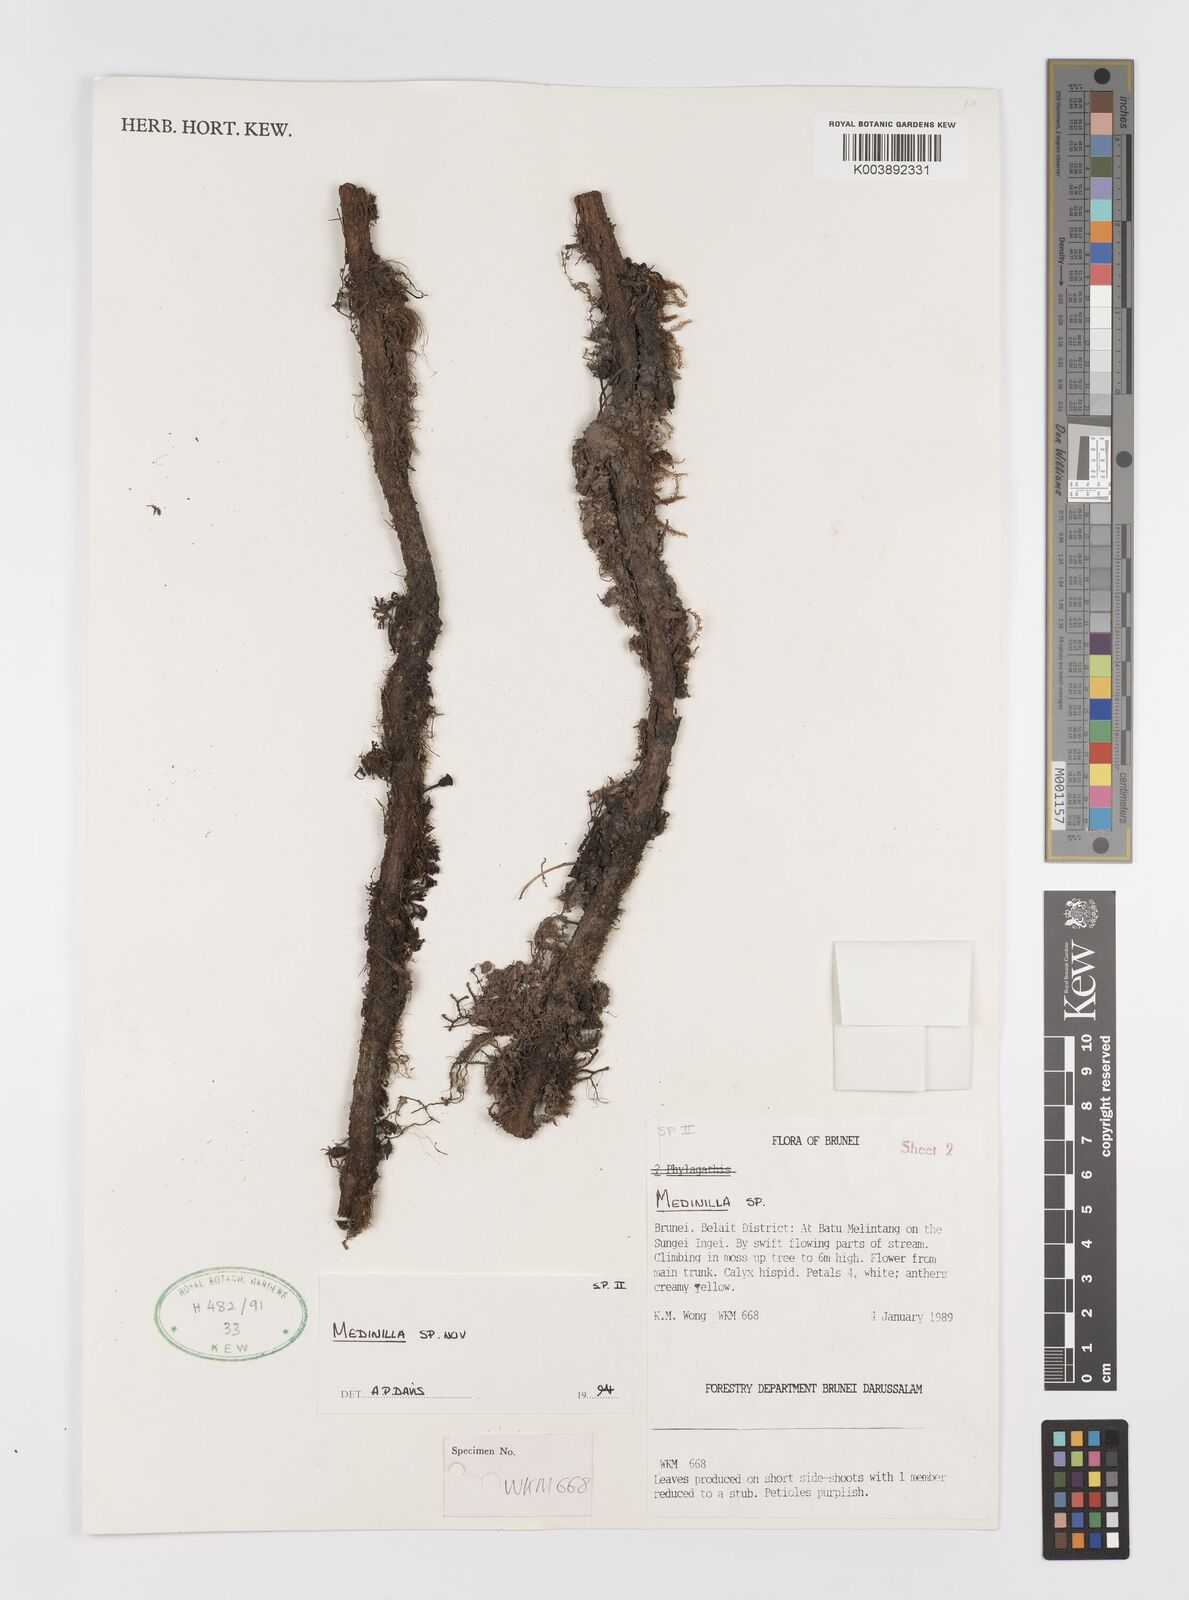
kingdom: Plantae
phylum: Tracheophyta
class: Magnoliopsida
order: Myrtales
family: Melastomataceae
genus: Heteroblemma
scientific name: Heteroblemma serpens
